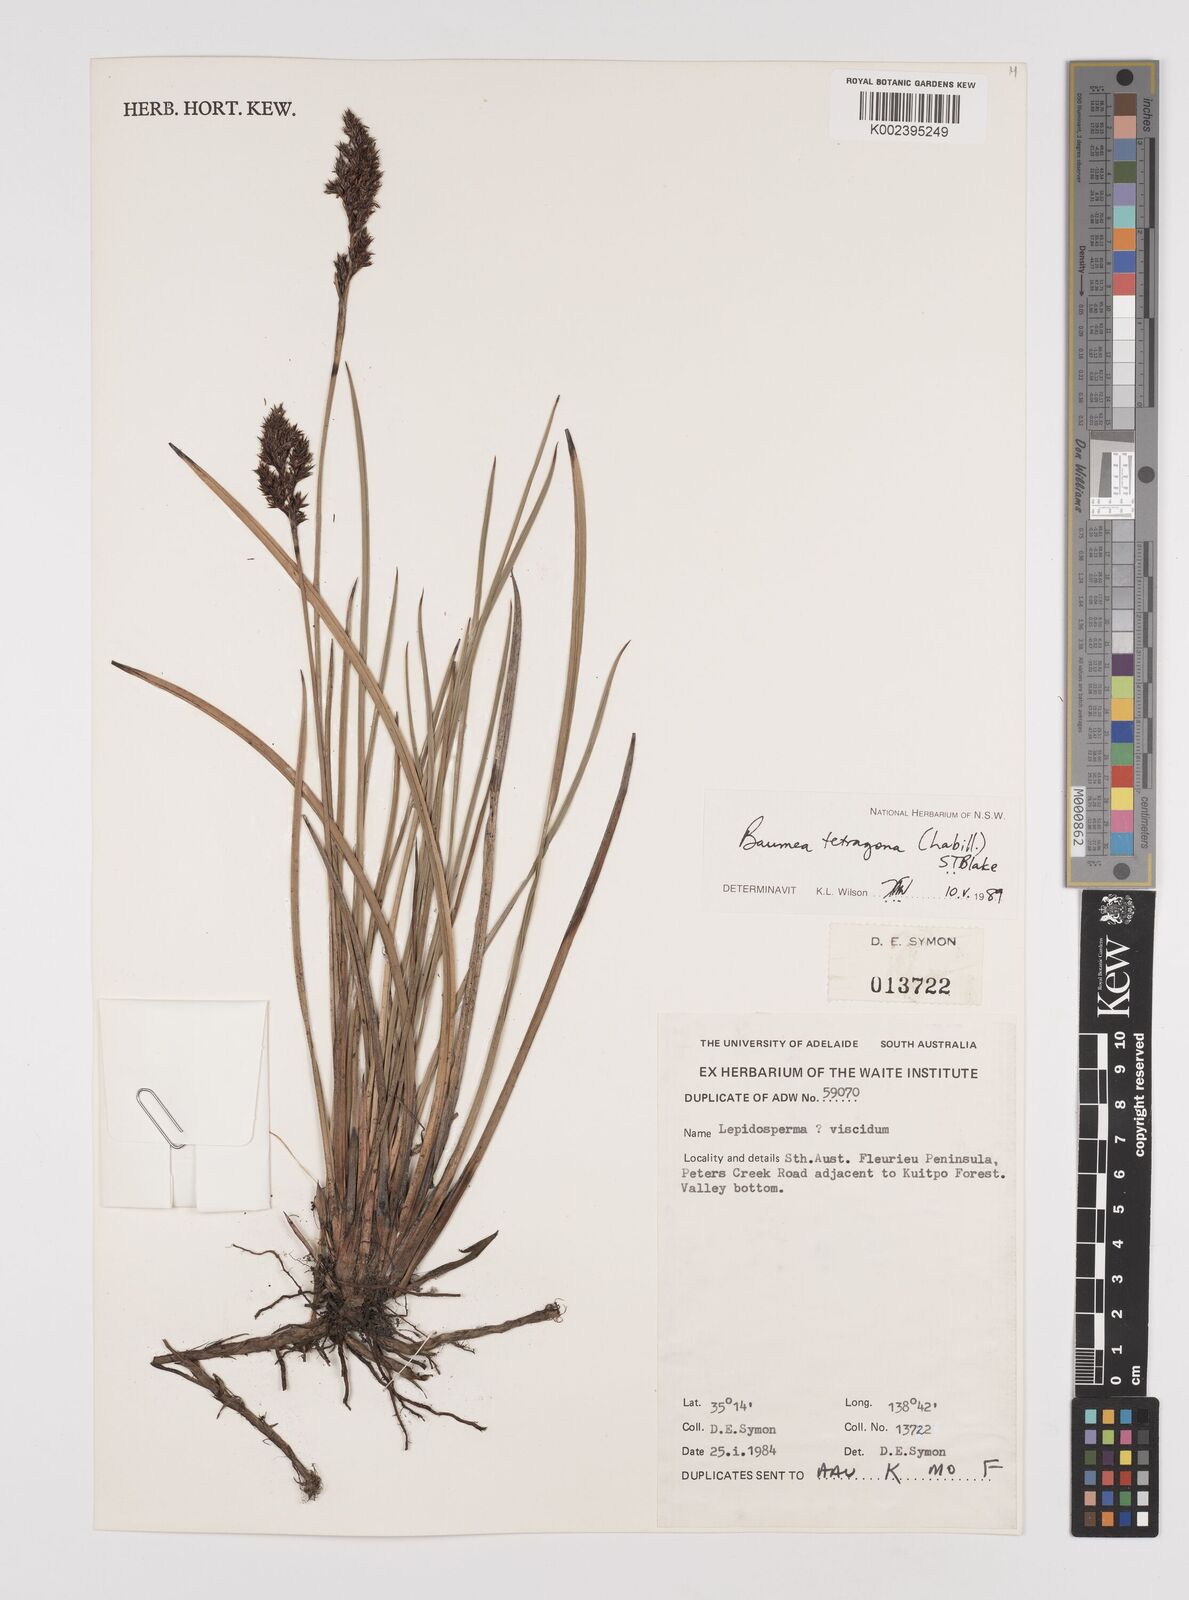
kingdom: Plantae
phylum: Tracheophyta
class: Liliopsida
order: Poales
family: Cyperaceae
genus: Machaerina
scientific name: Machaerina tetragona
